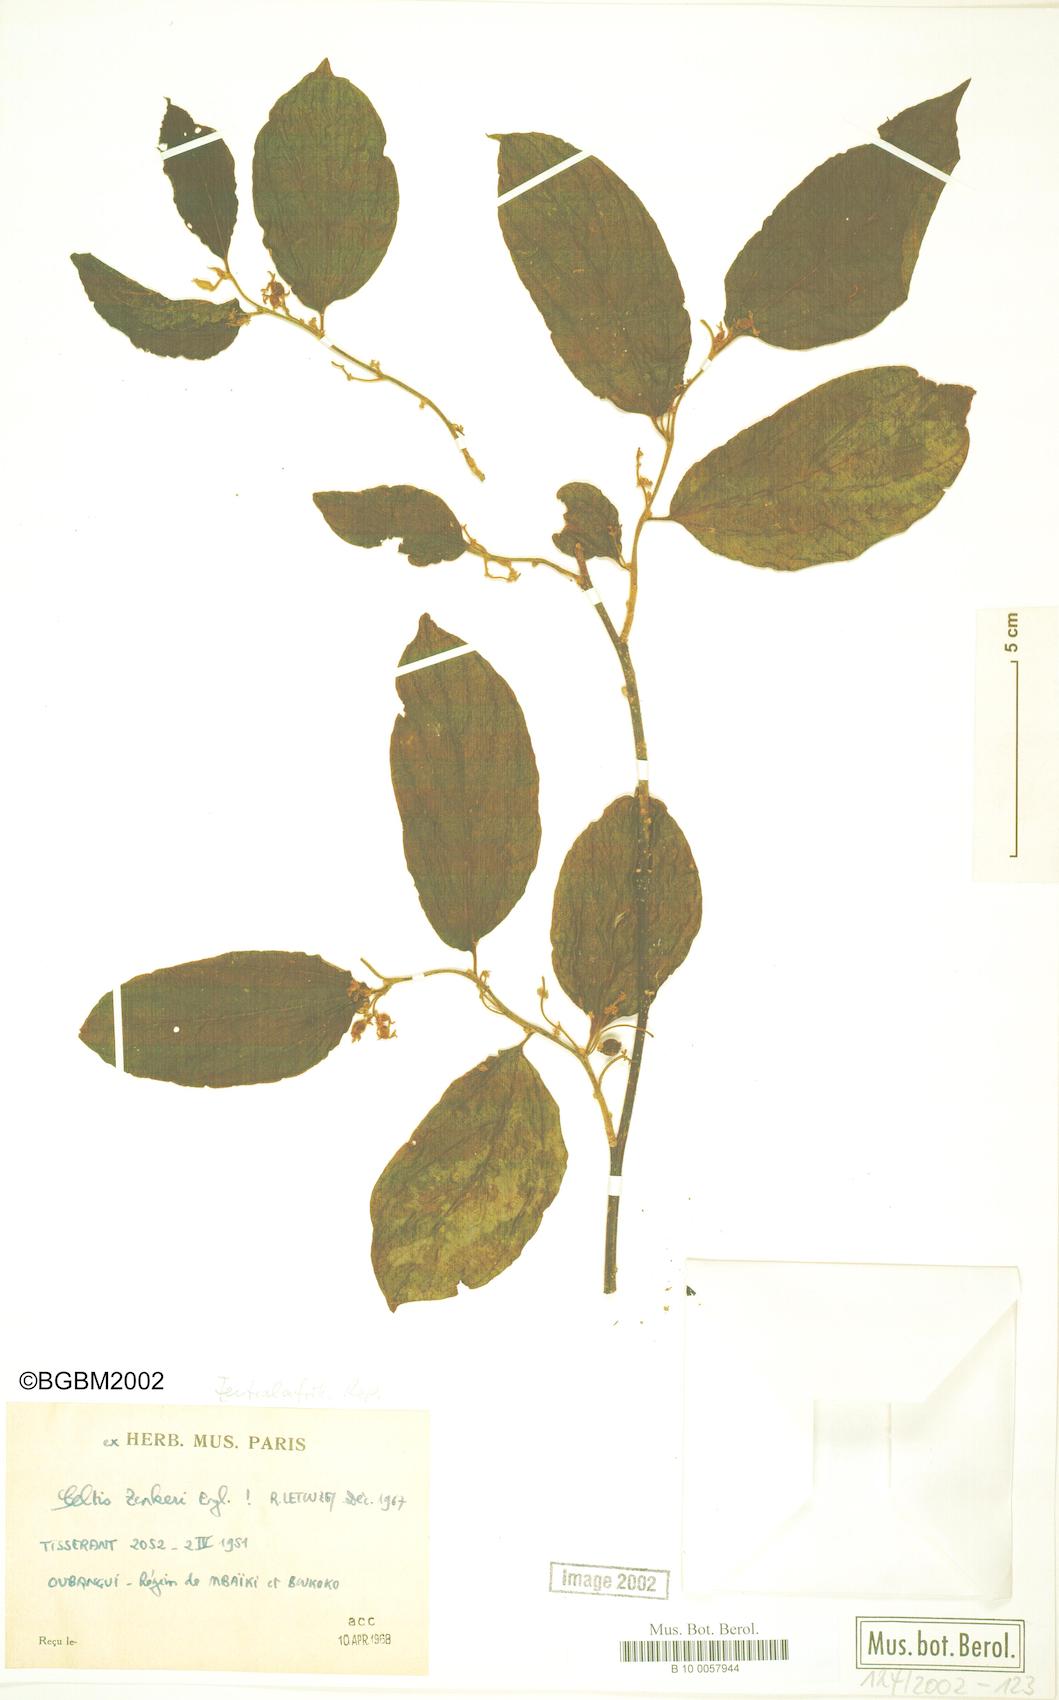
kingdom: Plantae
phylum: Tracheophyta
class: Magnoliopsida
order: Rosales
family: Cannabaceae
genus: Celtis
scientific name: Celtis zenkeri
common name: African celtis
